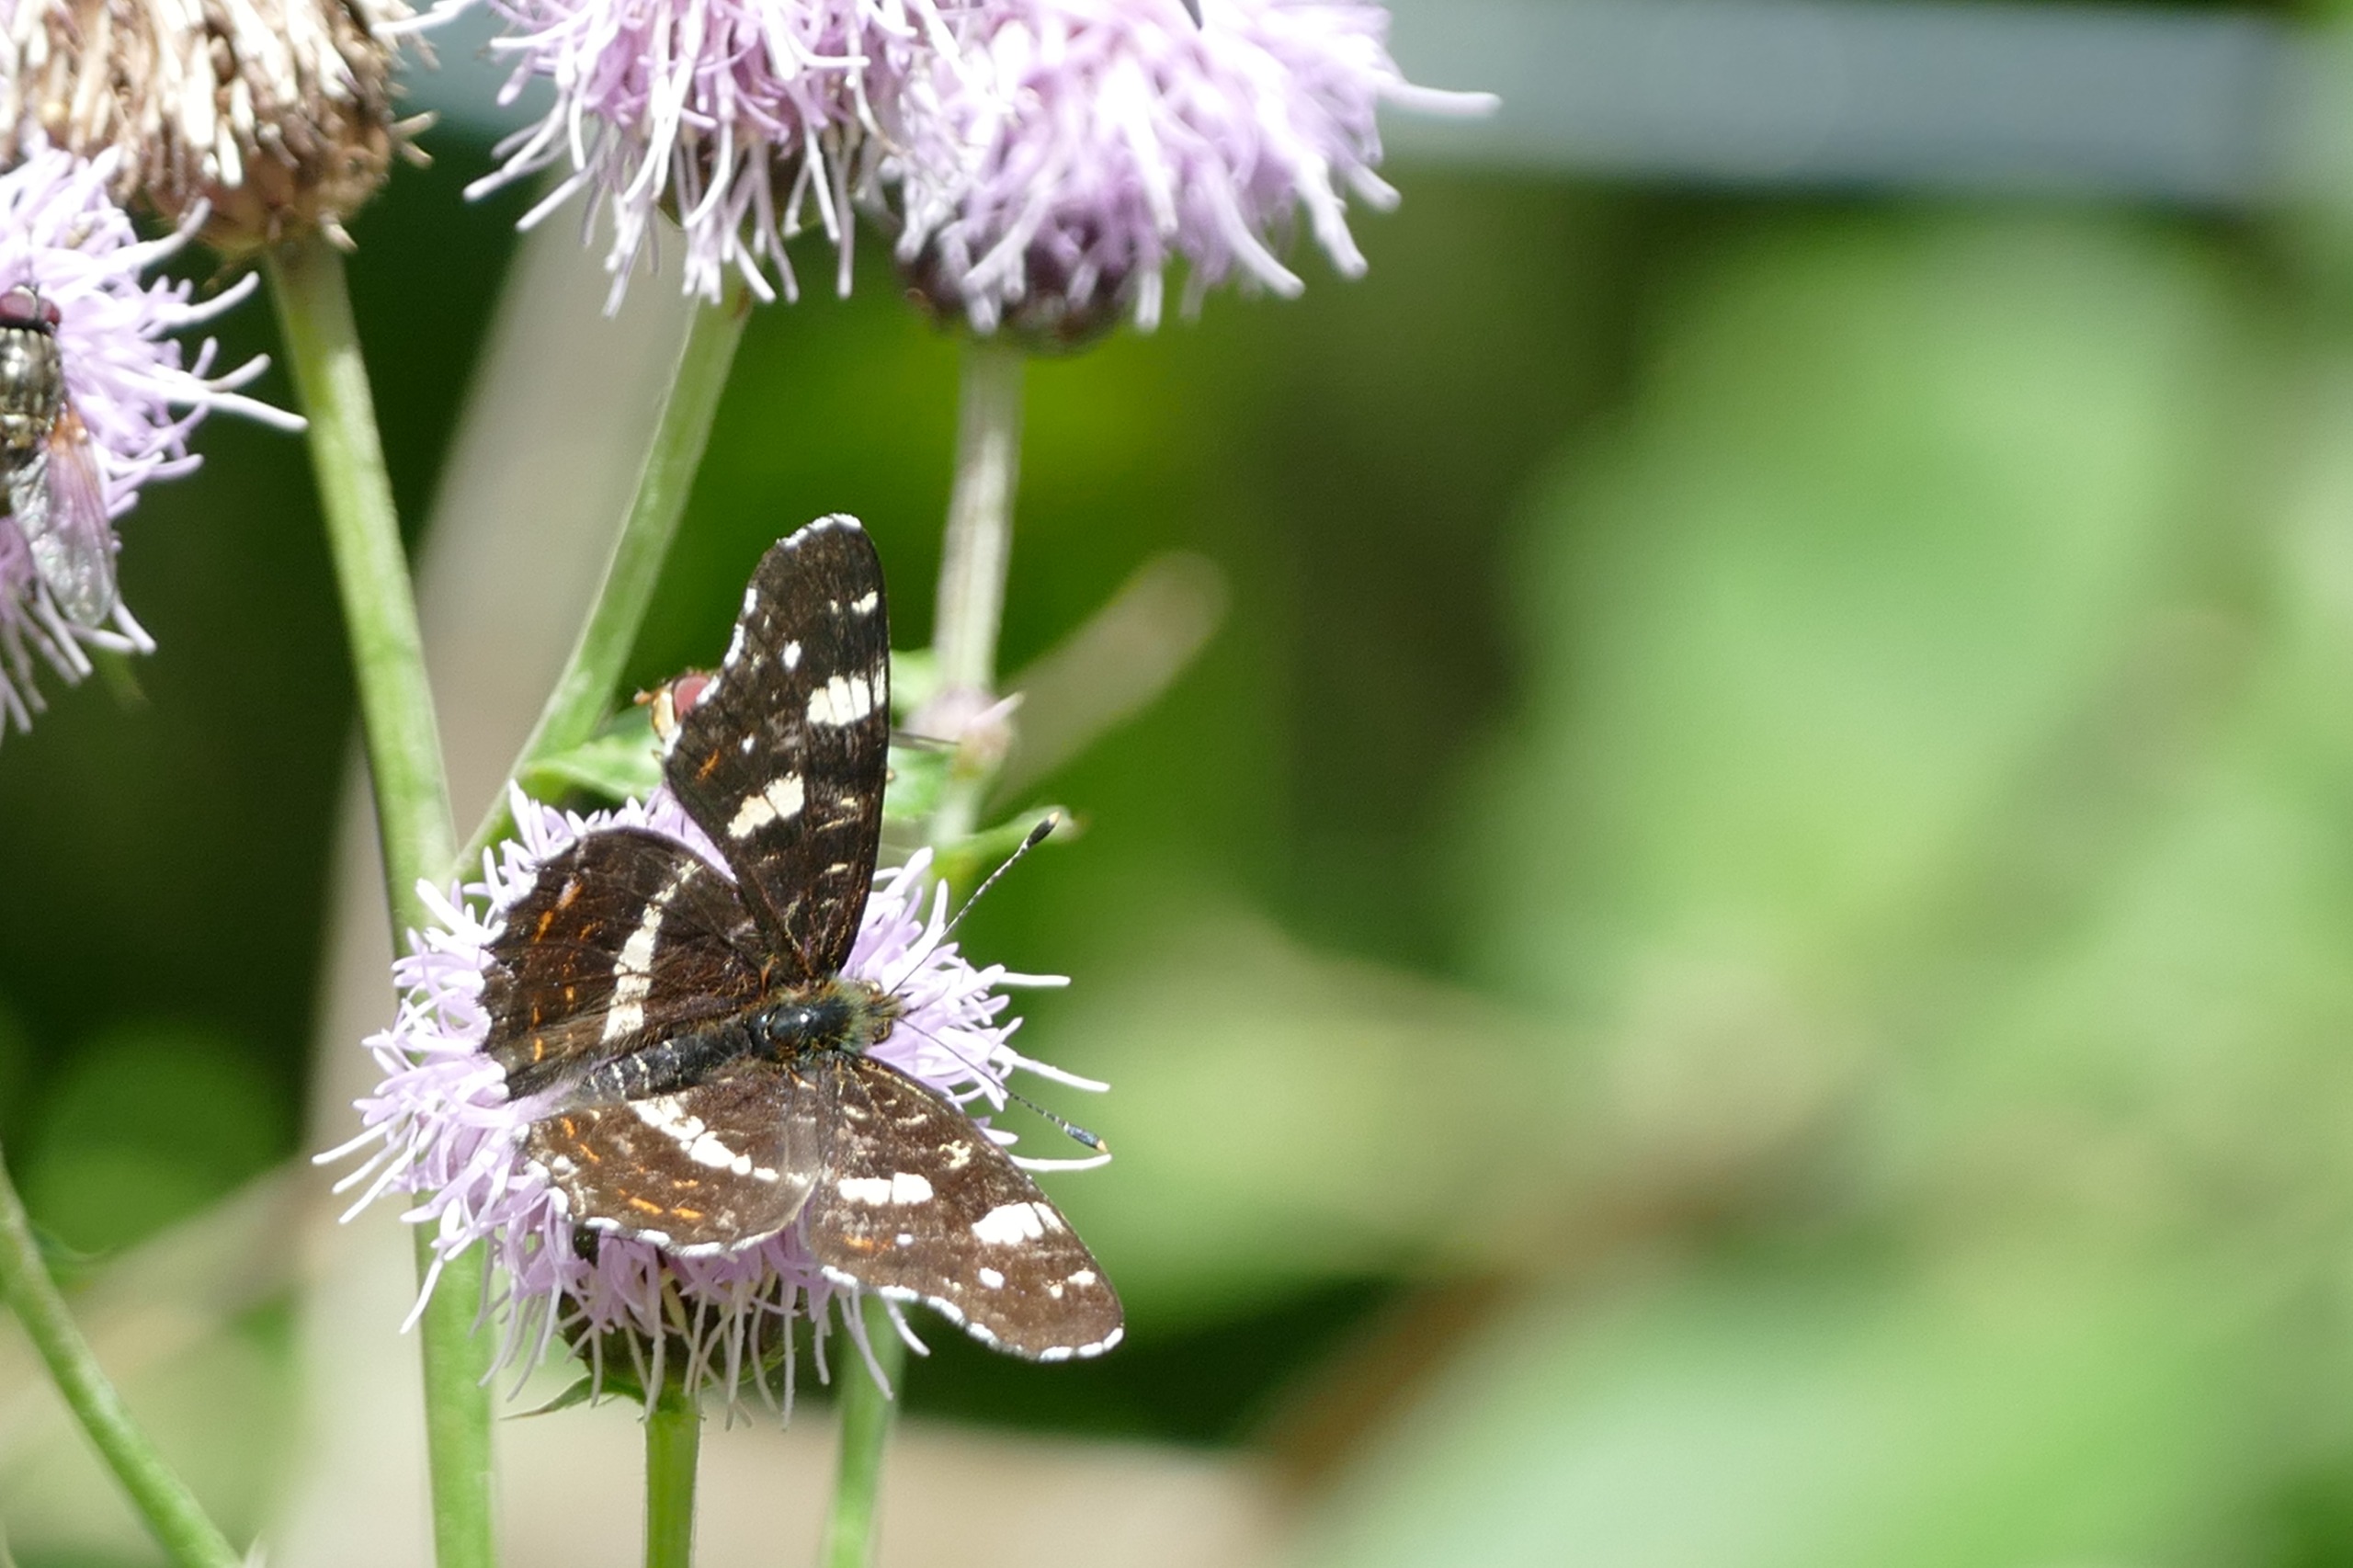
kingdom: Animalia
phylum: Arthropoda
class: Insecta
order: Lepidoptera
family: Nymphalidae
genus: Araschnia
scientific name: Araschnia levana
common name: Nældesommerfugl
